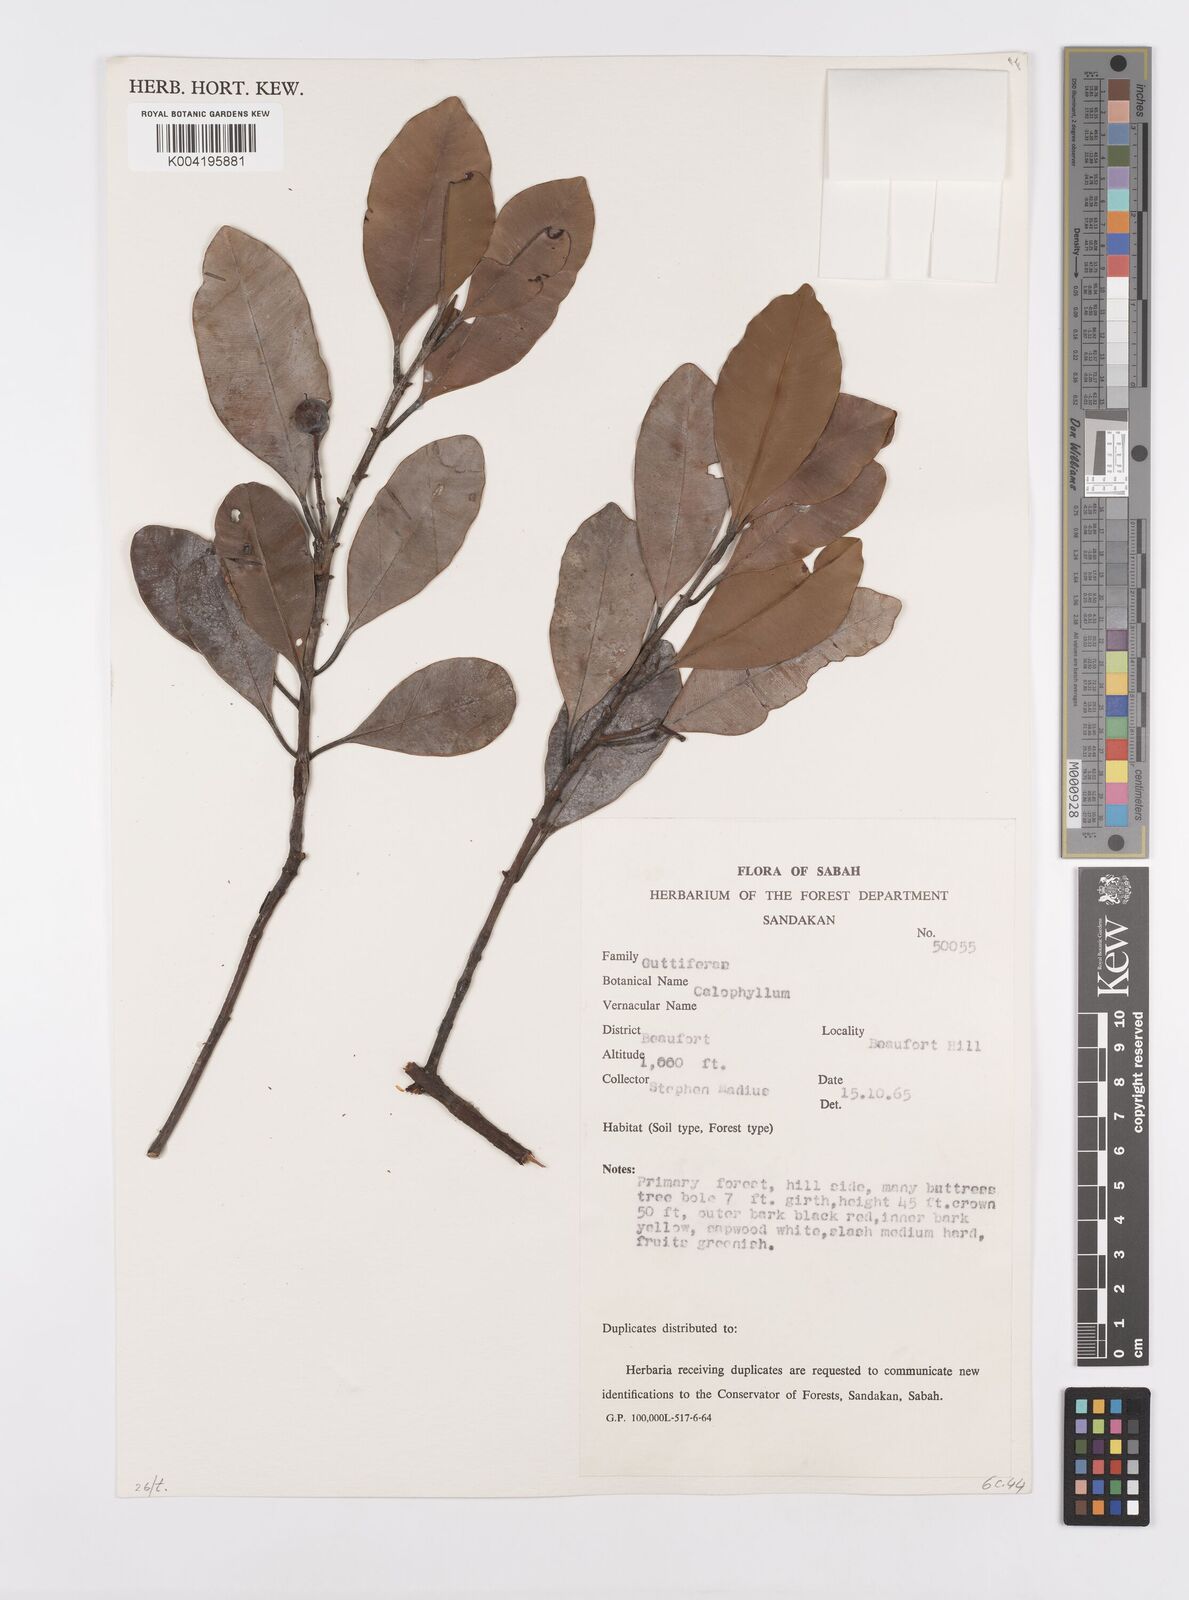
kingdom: Plantae
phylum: Tracheophyta
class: Magnoliopsida
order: Malpighiales
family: Calophyllaceae
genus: Calophyllum
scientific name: Calophyllum teysmannii
